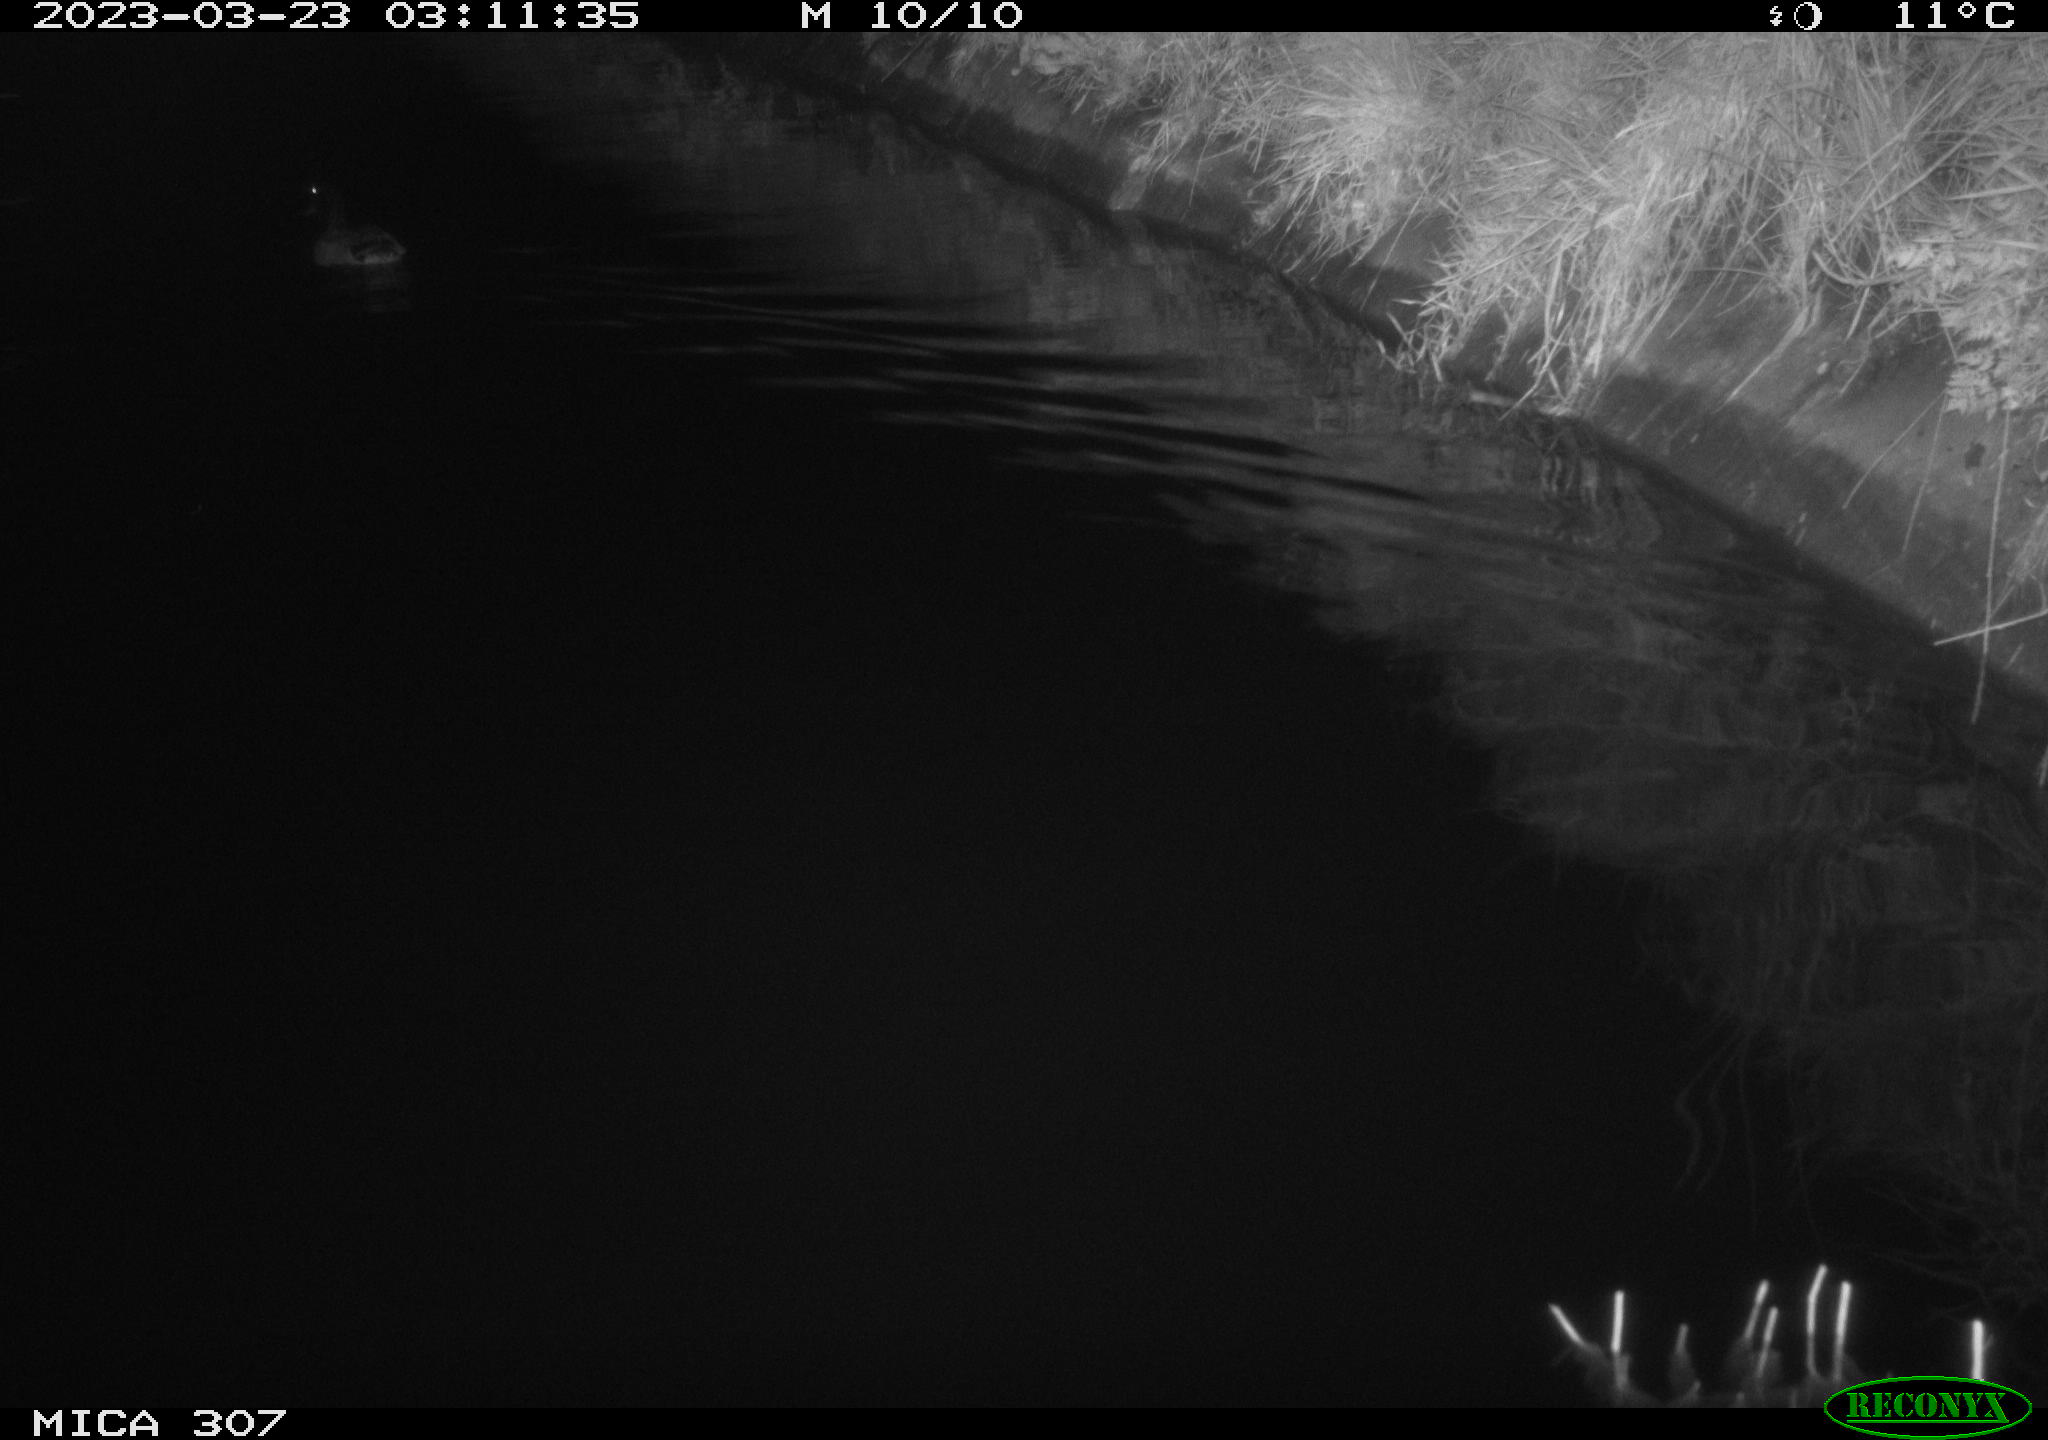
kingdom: Animalia
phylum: Chordata
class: Aves
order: Anseriformes
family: Anatidae
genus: Anas
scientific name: Anas
